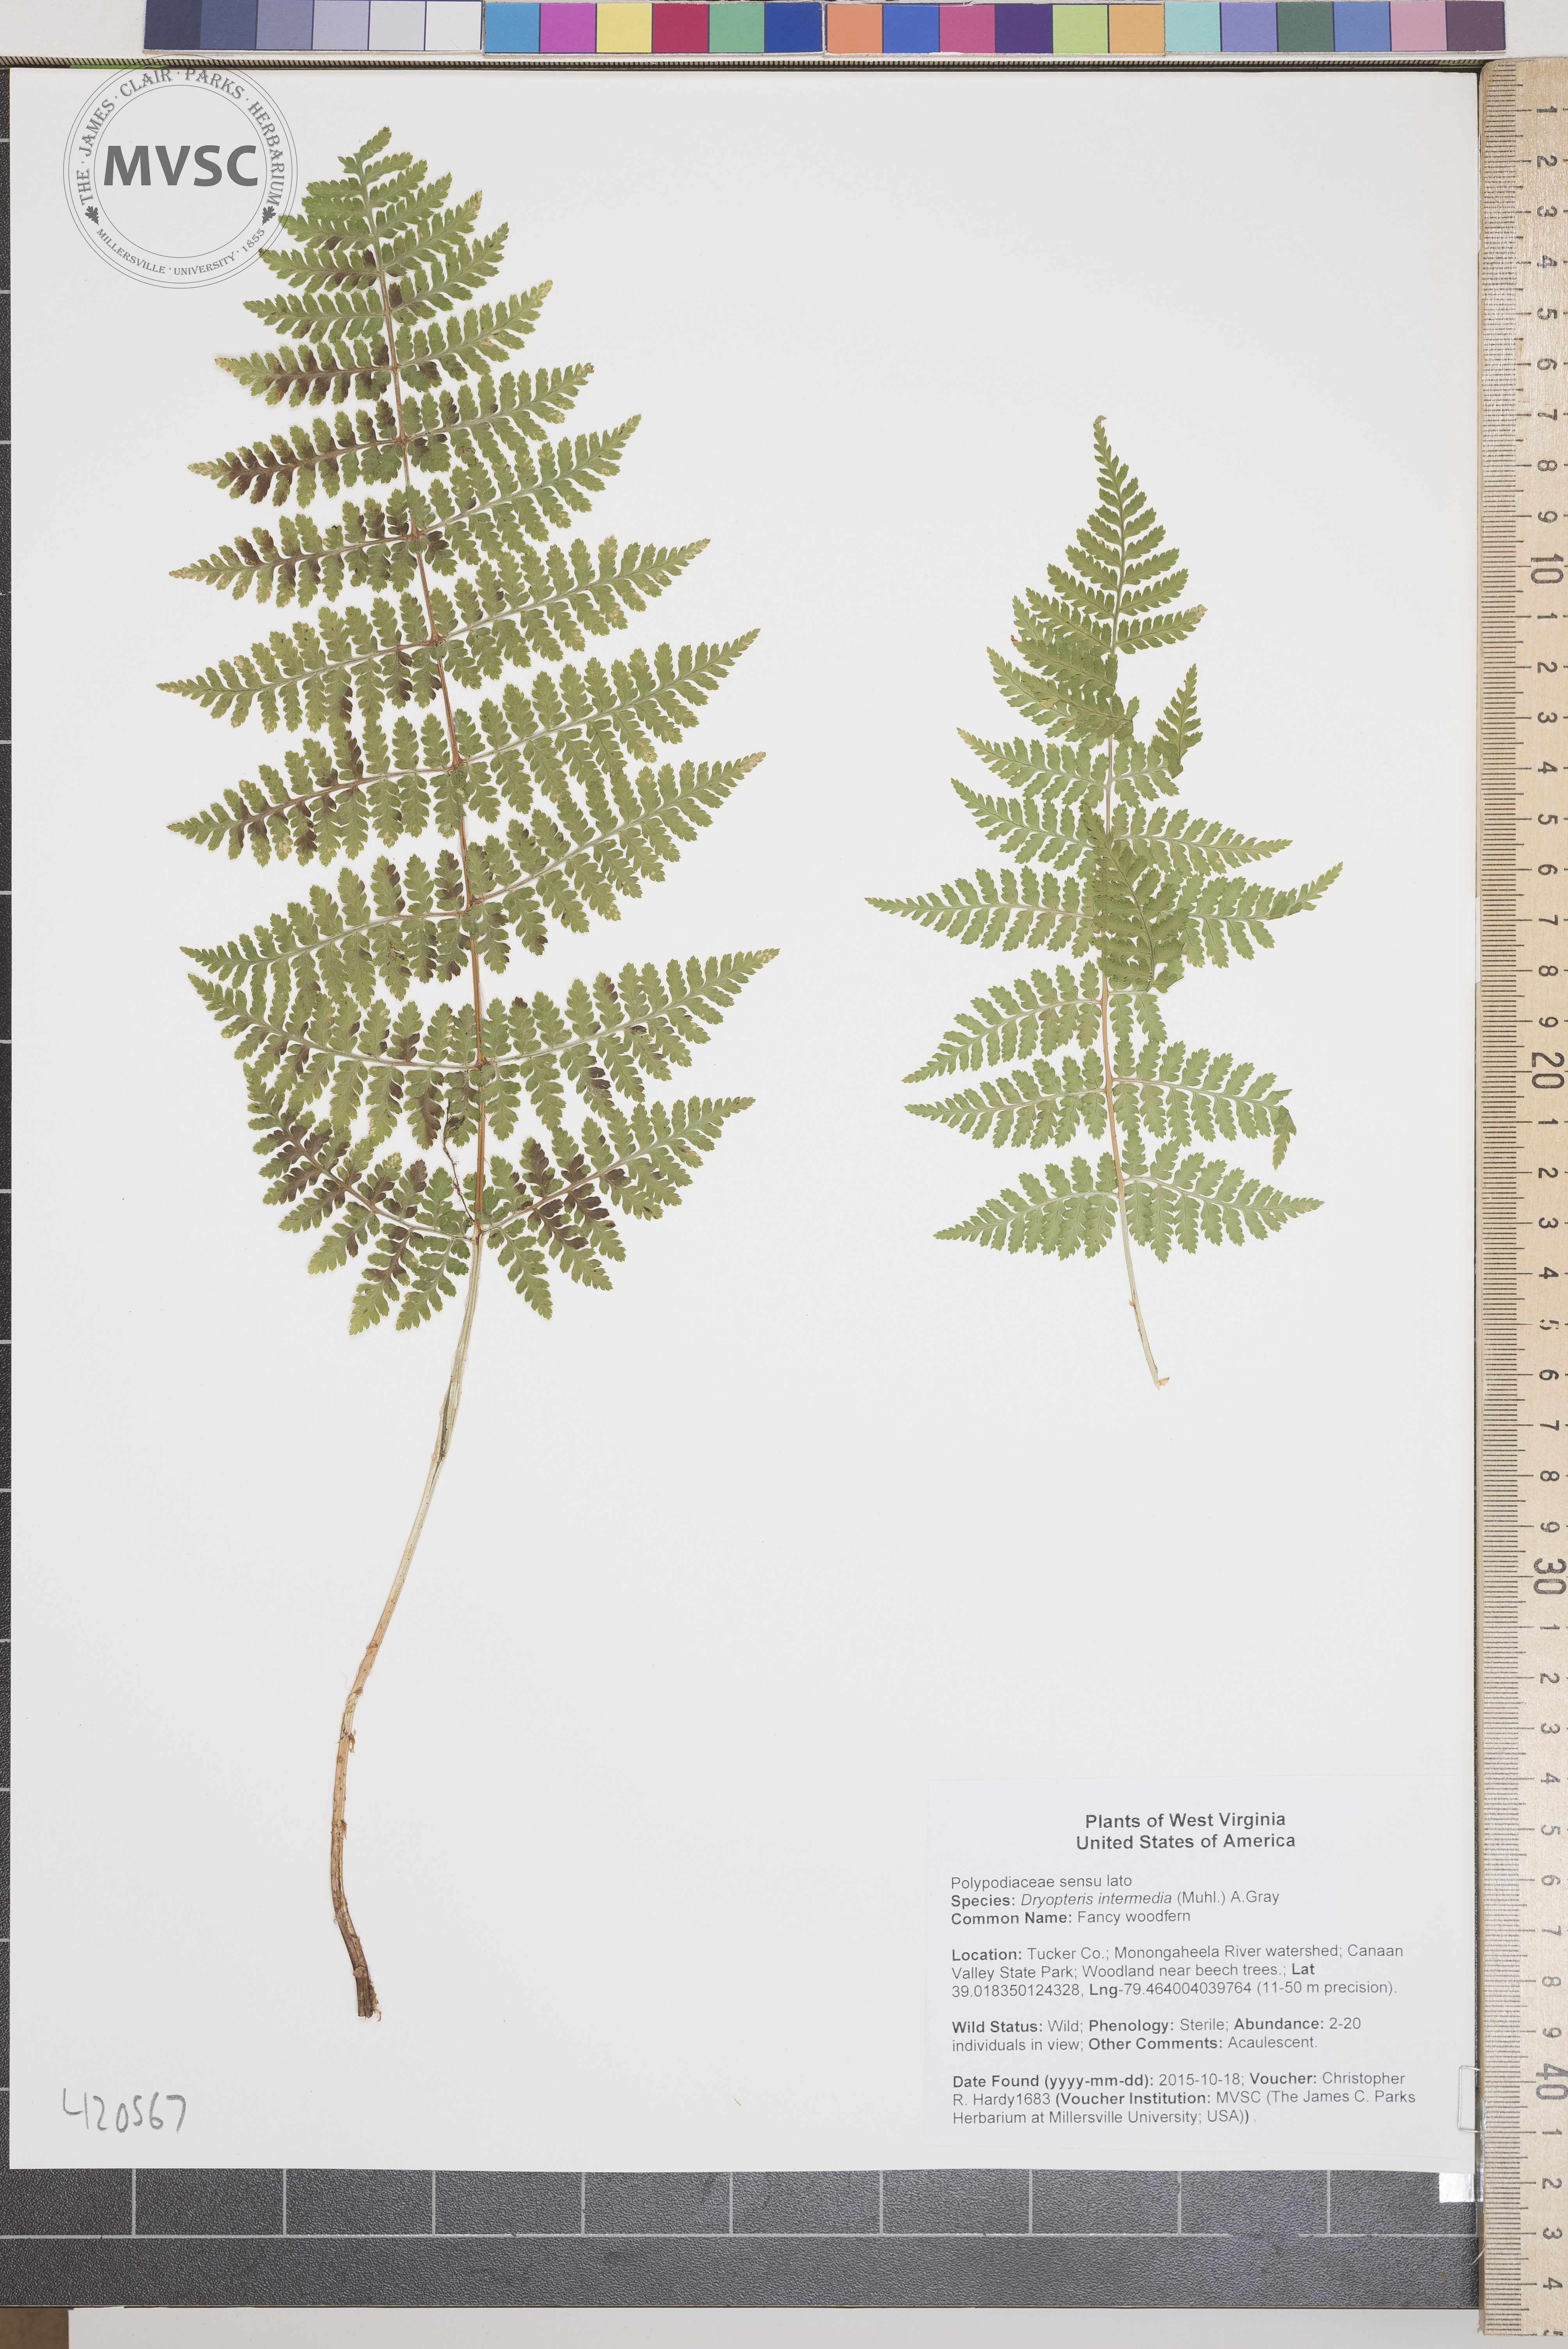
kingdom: Plantae
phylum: Tracheophyta
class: Polypodiopsida
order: Polypodiales
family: Dryopteridaceae
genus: Dryopteris
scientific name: Dryopteris intermedia
